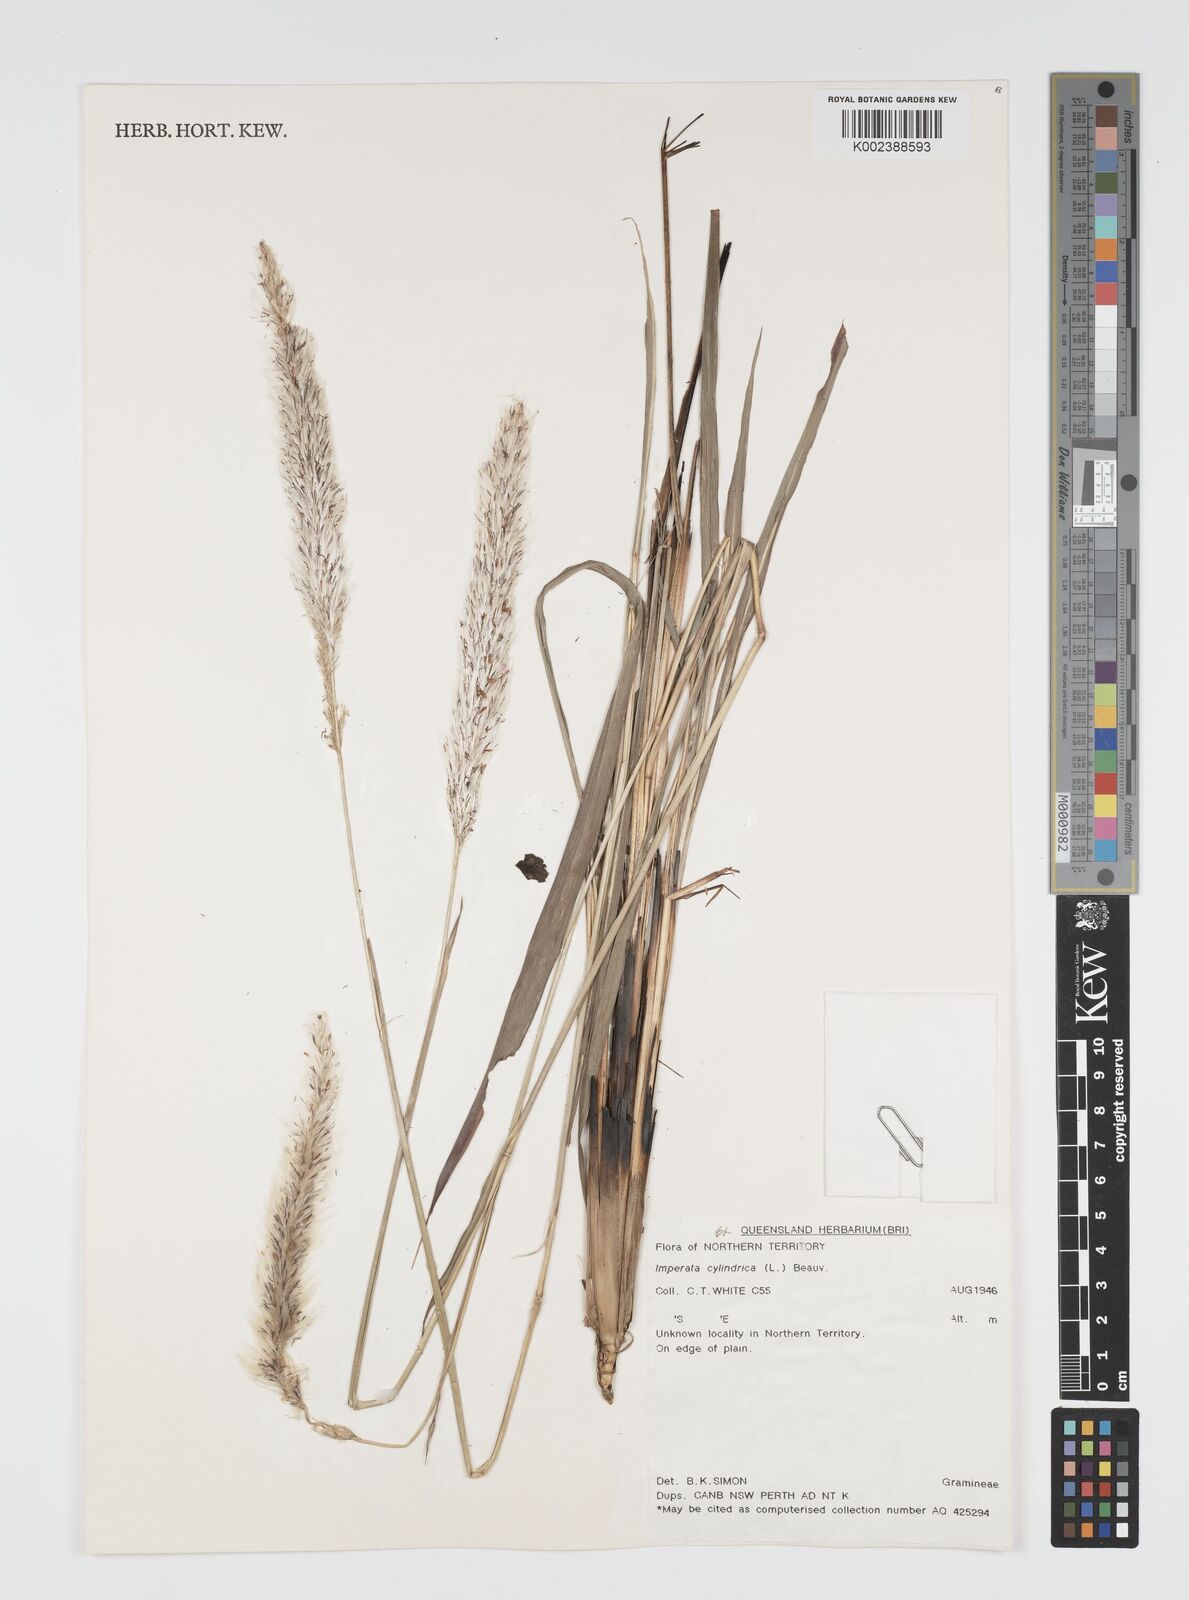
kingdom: Plantae
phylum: Tracheophyta
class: Liliopsida
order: Poales
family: Poaceae
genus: Imperata
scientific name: Imperata cylindrica
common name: Cogongrass
